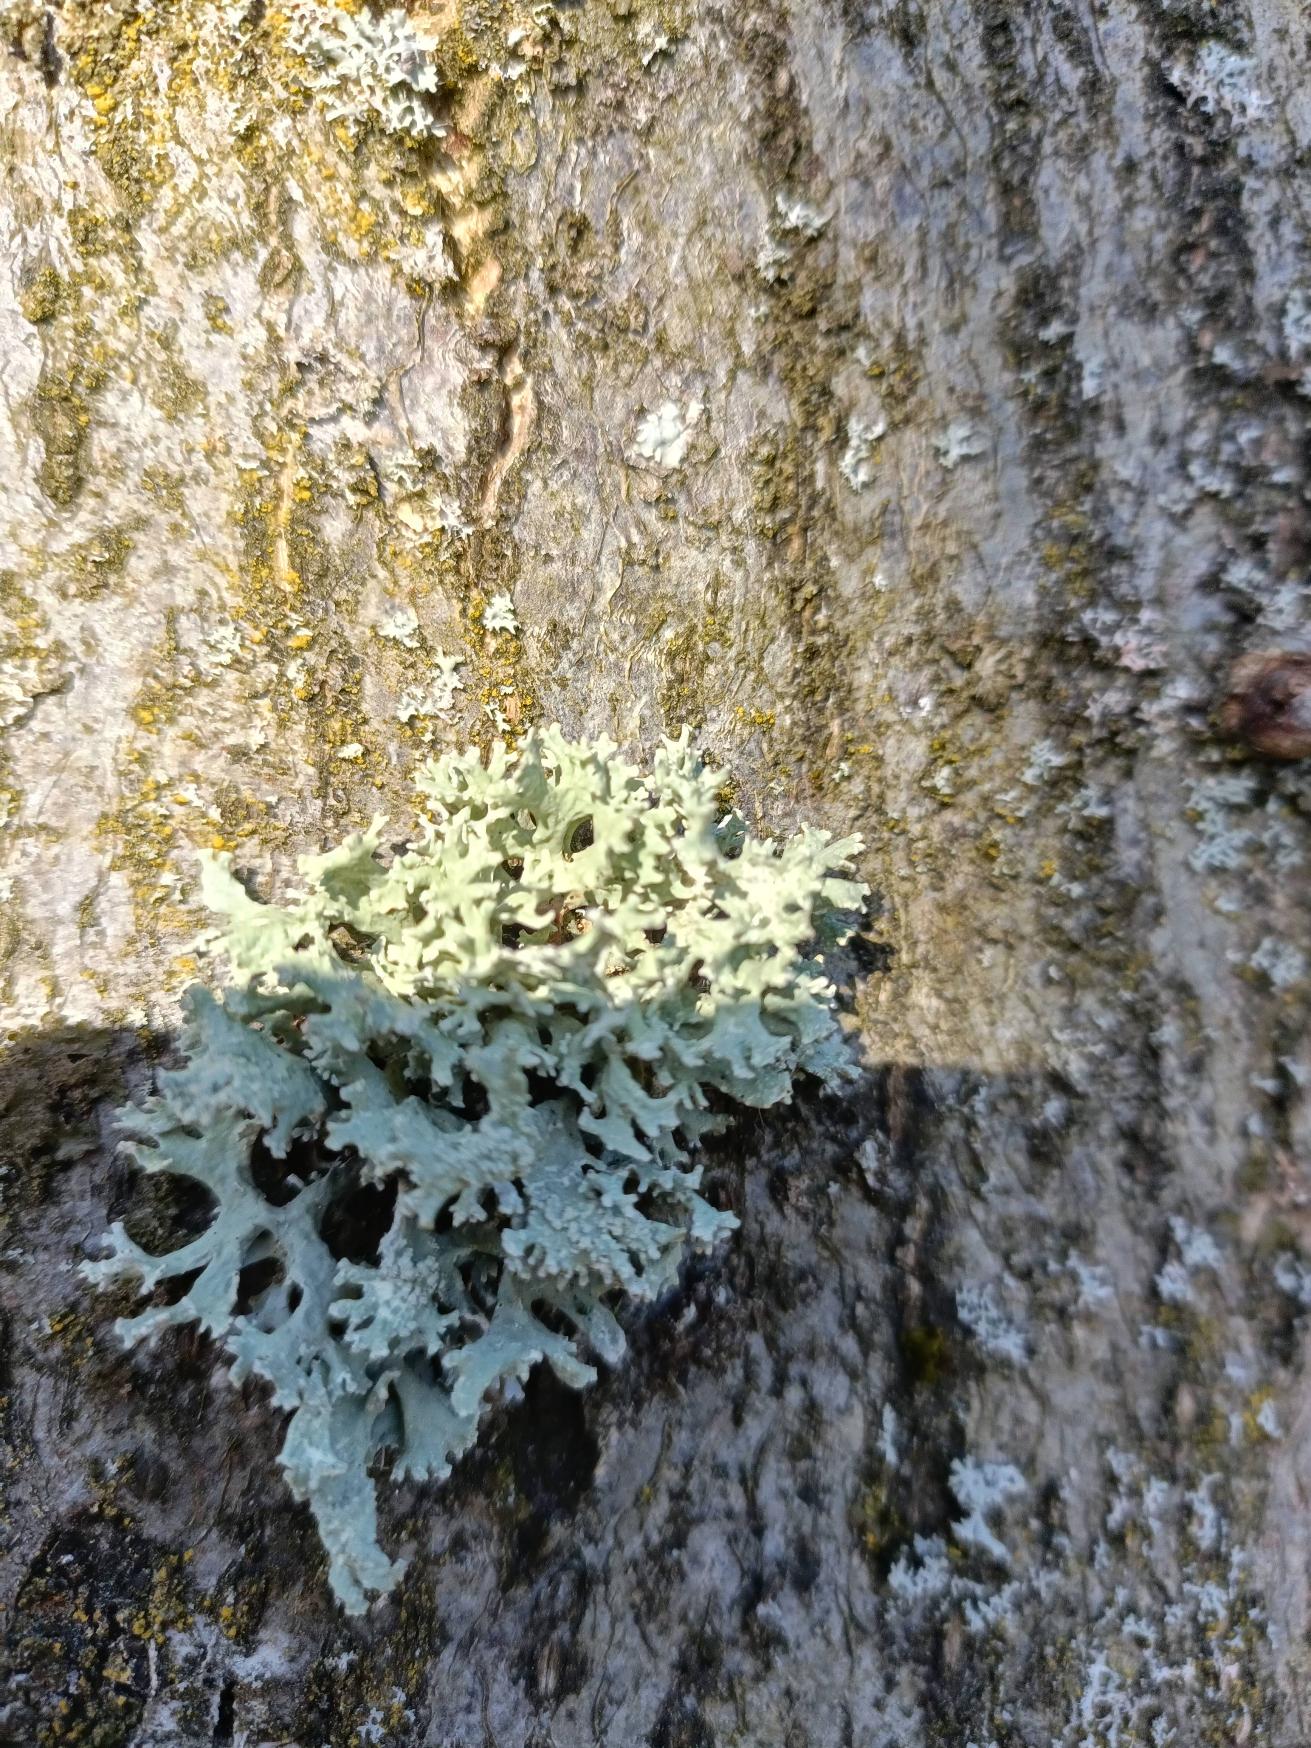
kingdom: Fungi
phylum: Ascomycota
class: Lecanoromycetes
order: Lecanorales
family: Parmeliaceae
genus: Evernia
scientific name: Evernia prunastri
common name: Almindelig slåenlav
